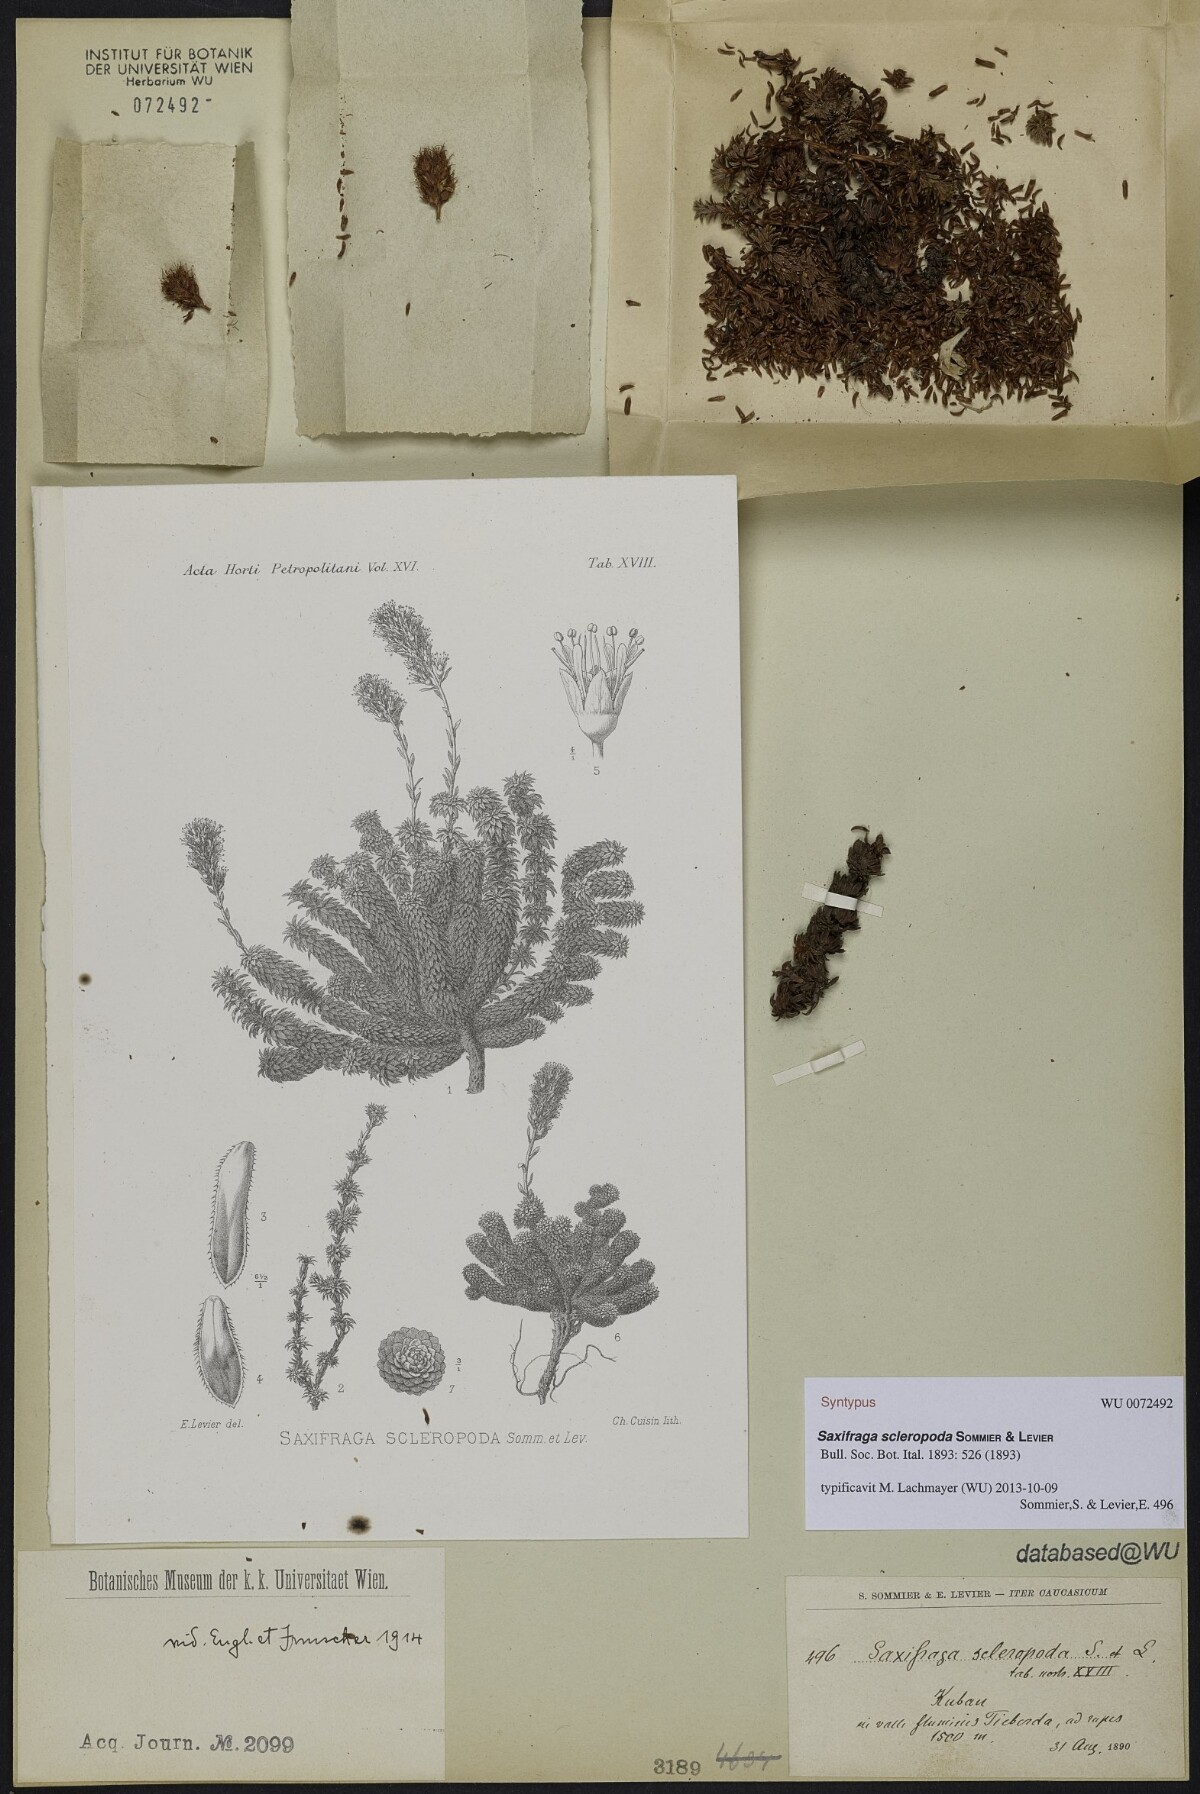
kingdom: Plantae
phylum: Tracheophyta
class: Magnoliopsida
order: Saxifragales
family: Saxifragaceae
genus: Saxifraga
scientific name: Saxifraga scleropoda
